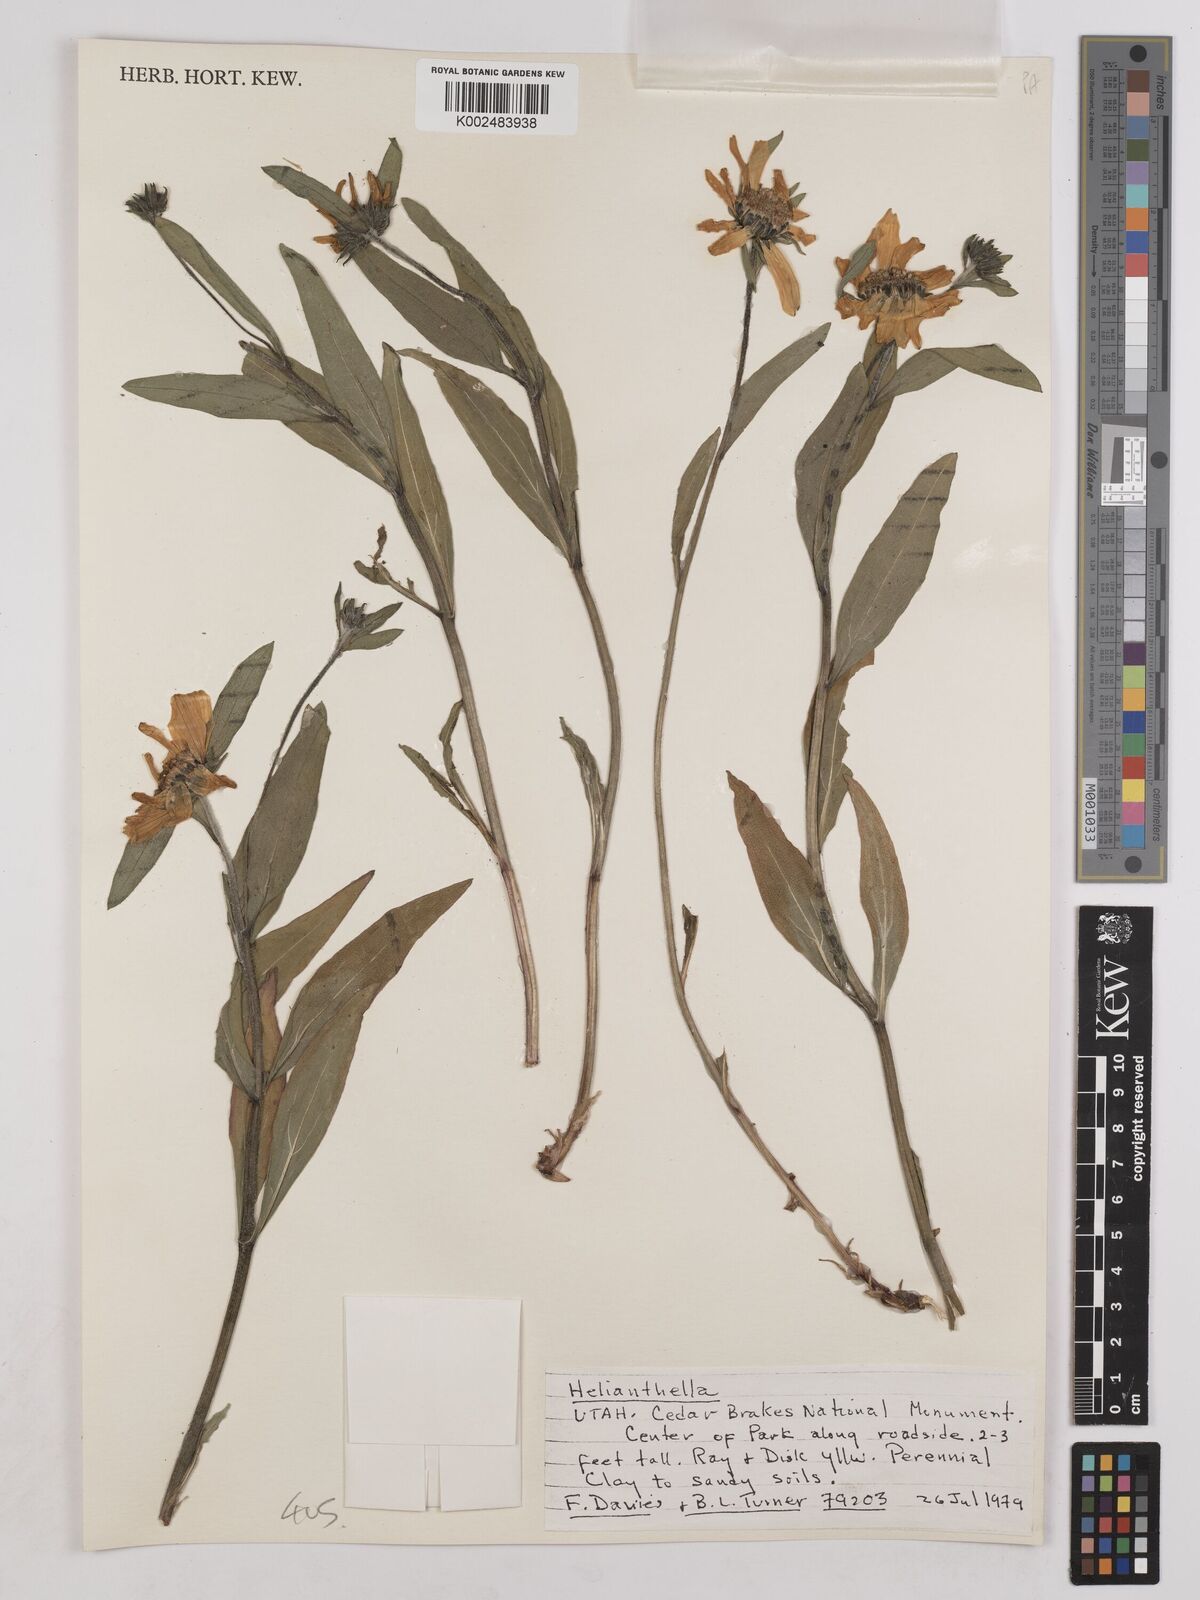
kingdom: Plantae
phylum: Tracheophyta
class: Magnoliopsida
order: Asterales
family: Asteraceae
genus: Helianthella
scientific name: Helianthella
